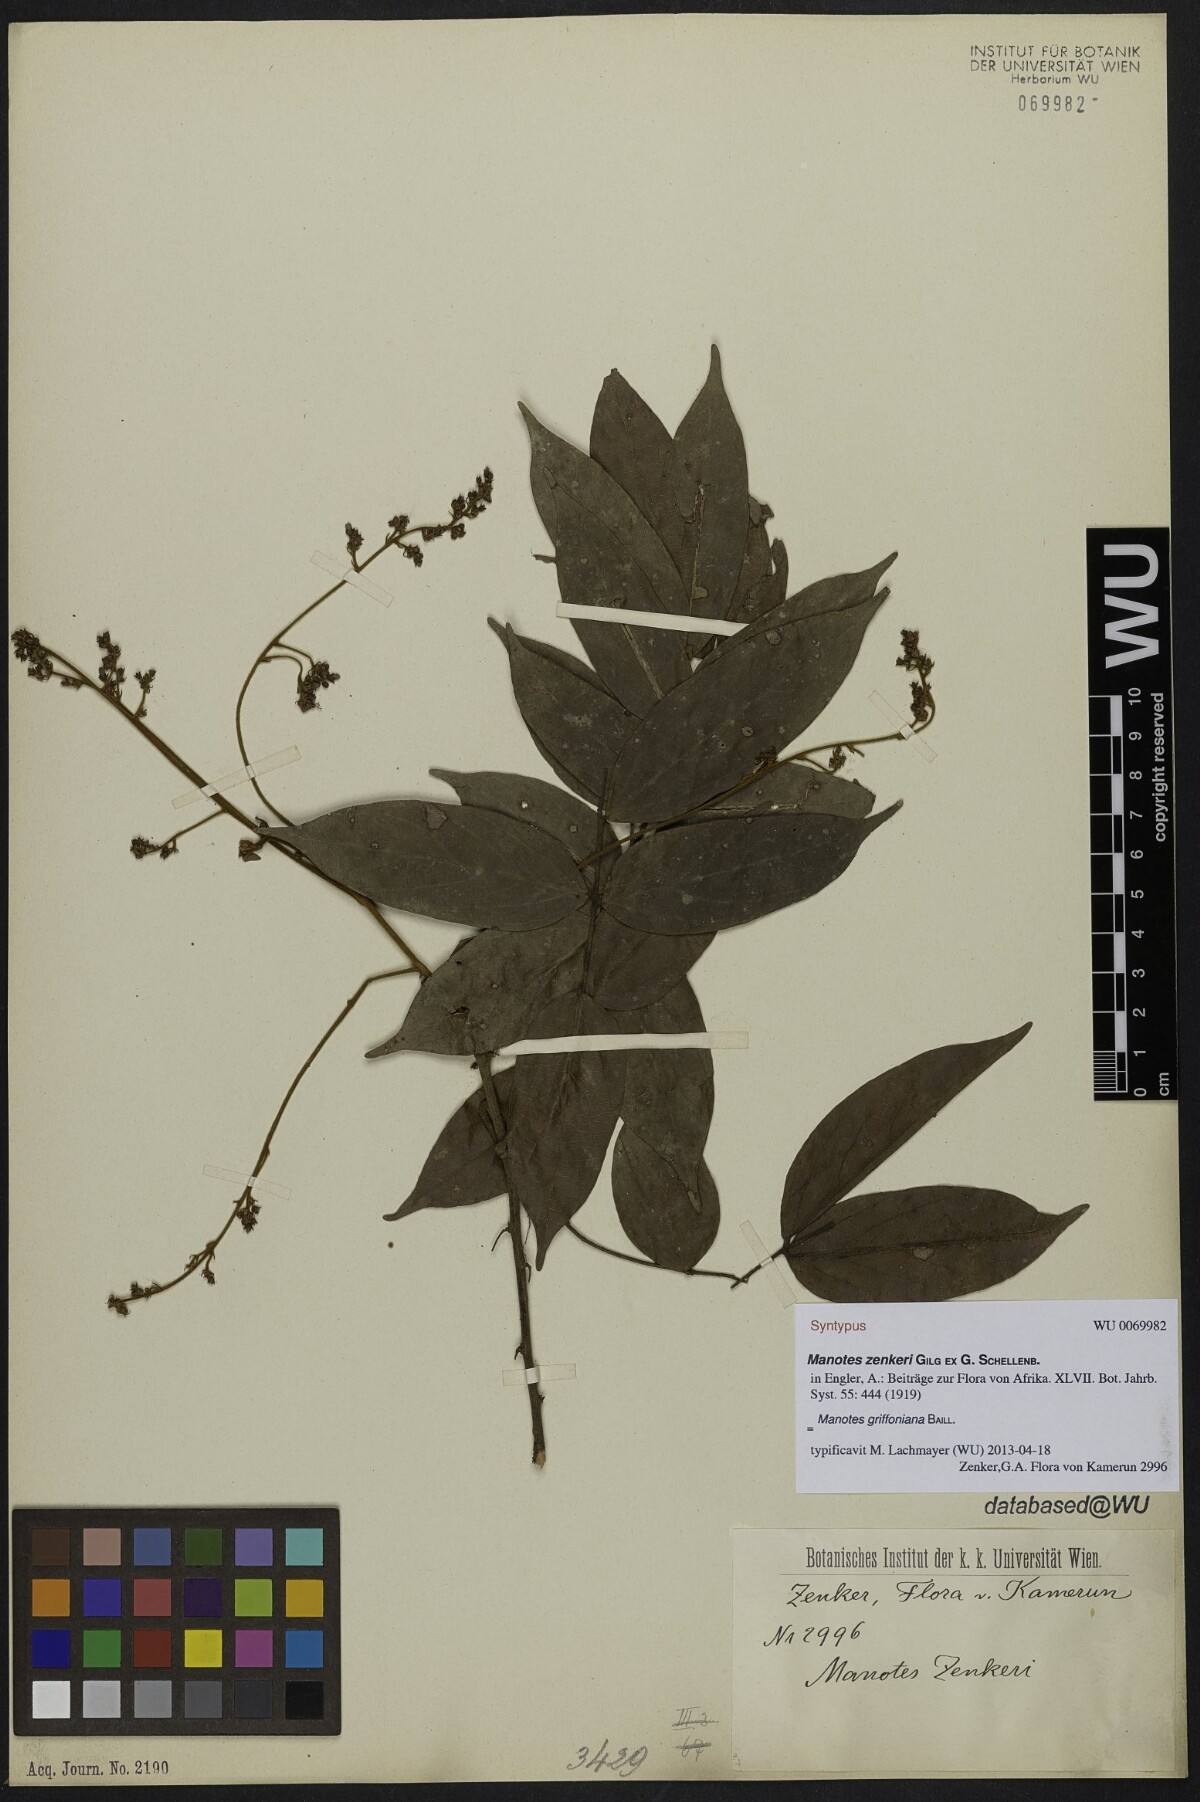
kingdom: Plantae
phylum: Tracheophyta
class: Magnoliopsida
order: Oxalidales
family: Connaraceae
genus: Manotes
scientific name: Manotes griffoniana
